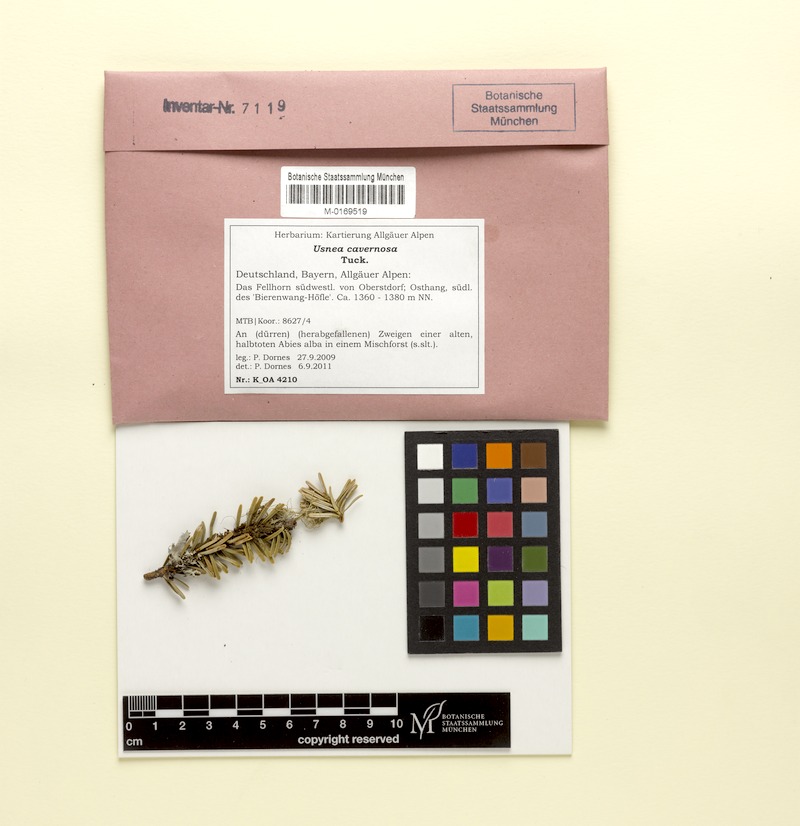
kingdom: Fungi
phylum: Ascomycota
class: Lecanoromycetes
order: Lecanorales
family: Parmeliaceae
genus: Usnea
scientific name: Usnea cavernosa
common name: Pitted beard lichen
